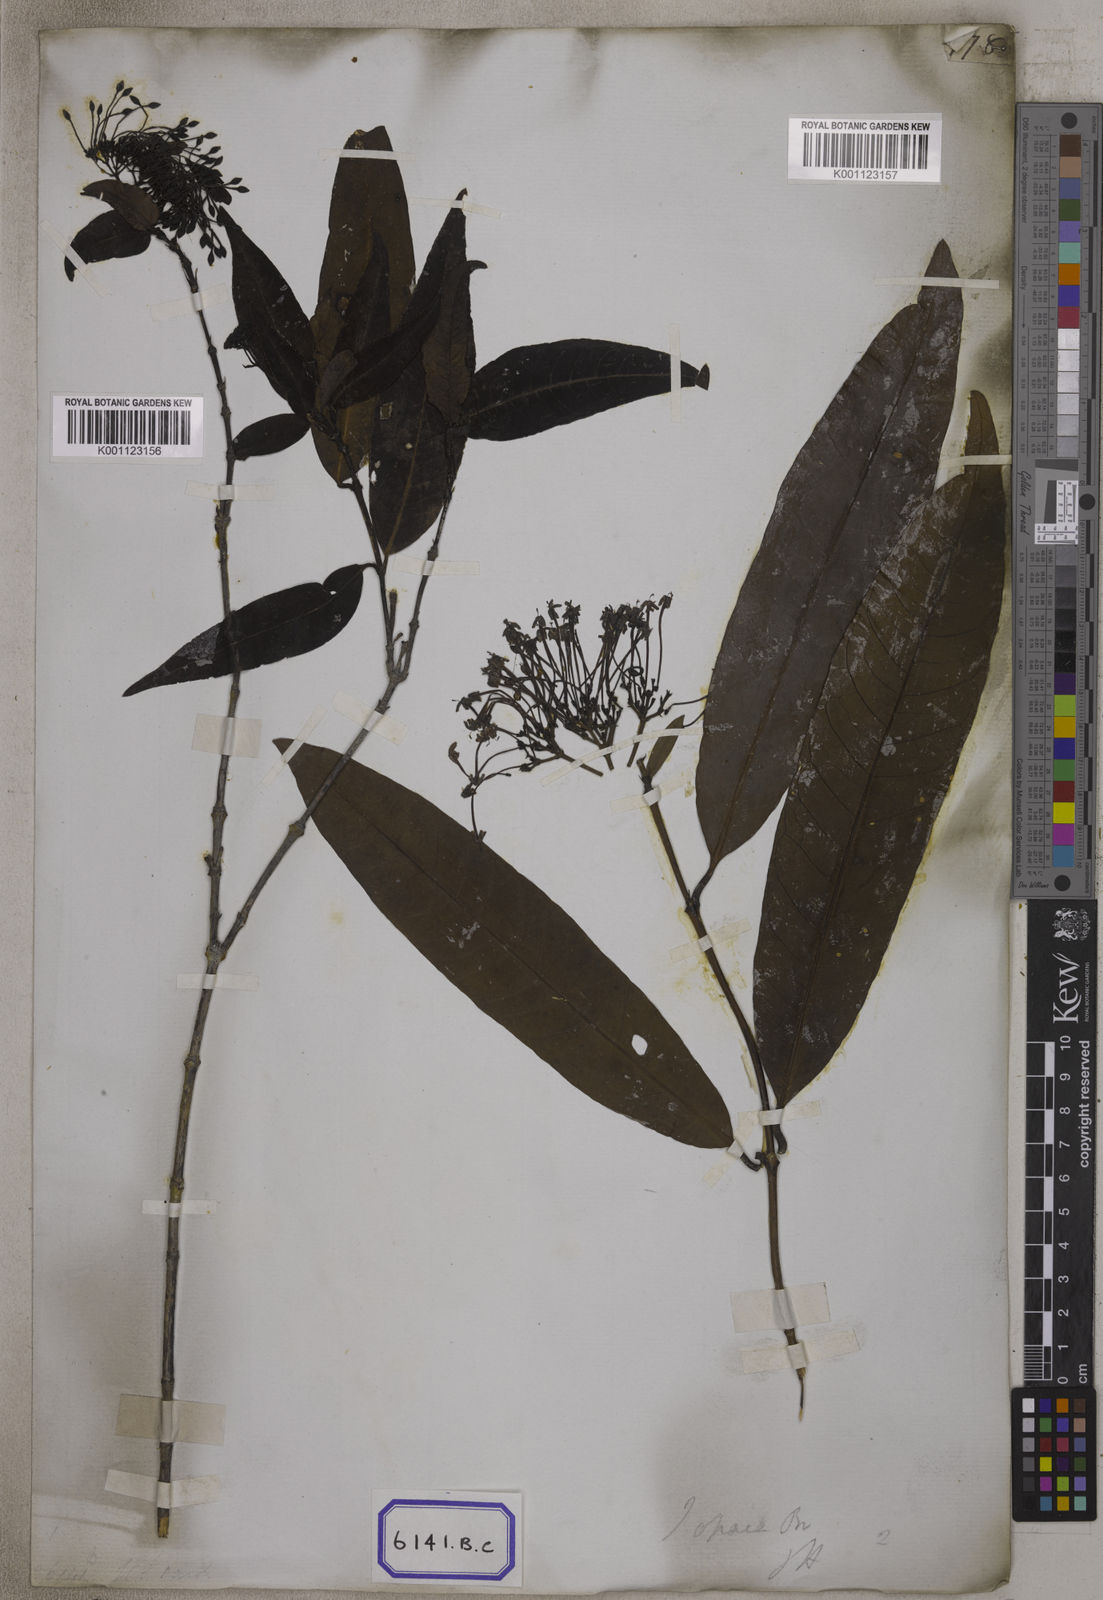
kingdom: Plantae
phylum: Tracheophyta
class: Magnoliopsida
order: Gentianales
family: Rubiaceae
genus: Ixora
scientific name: Ixora
